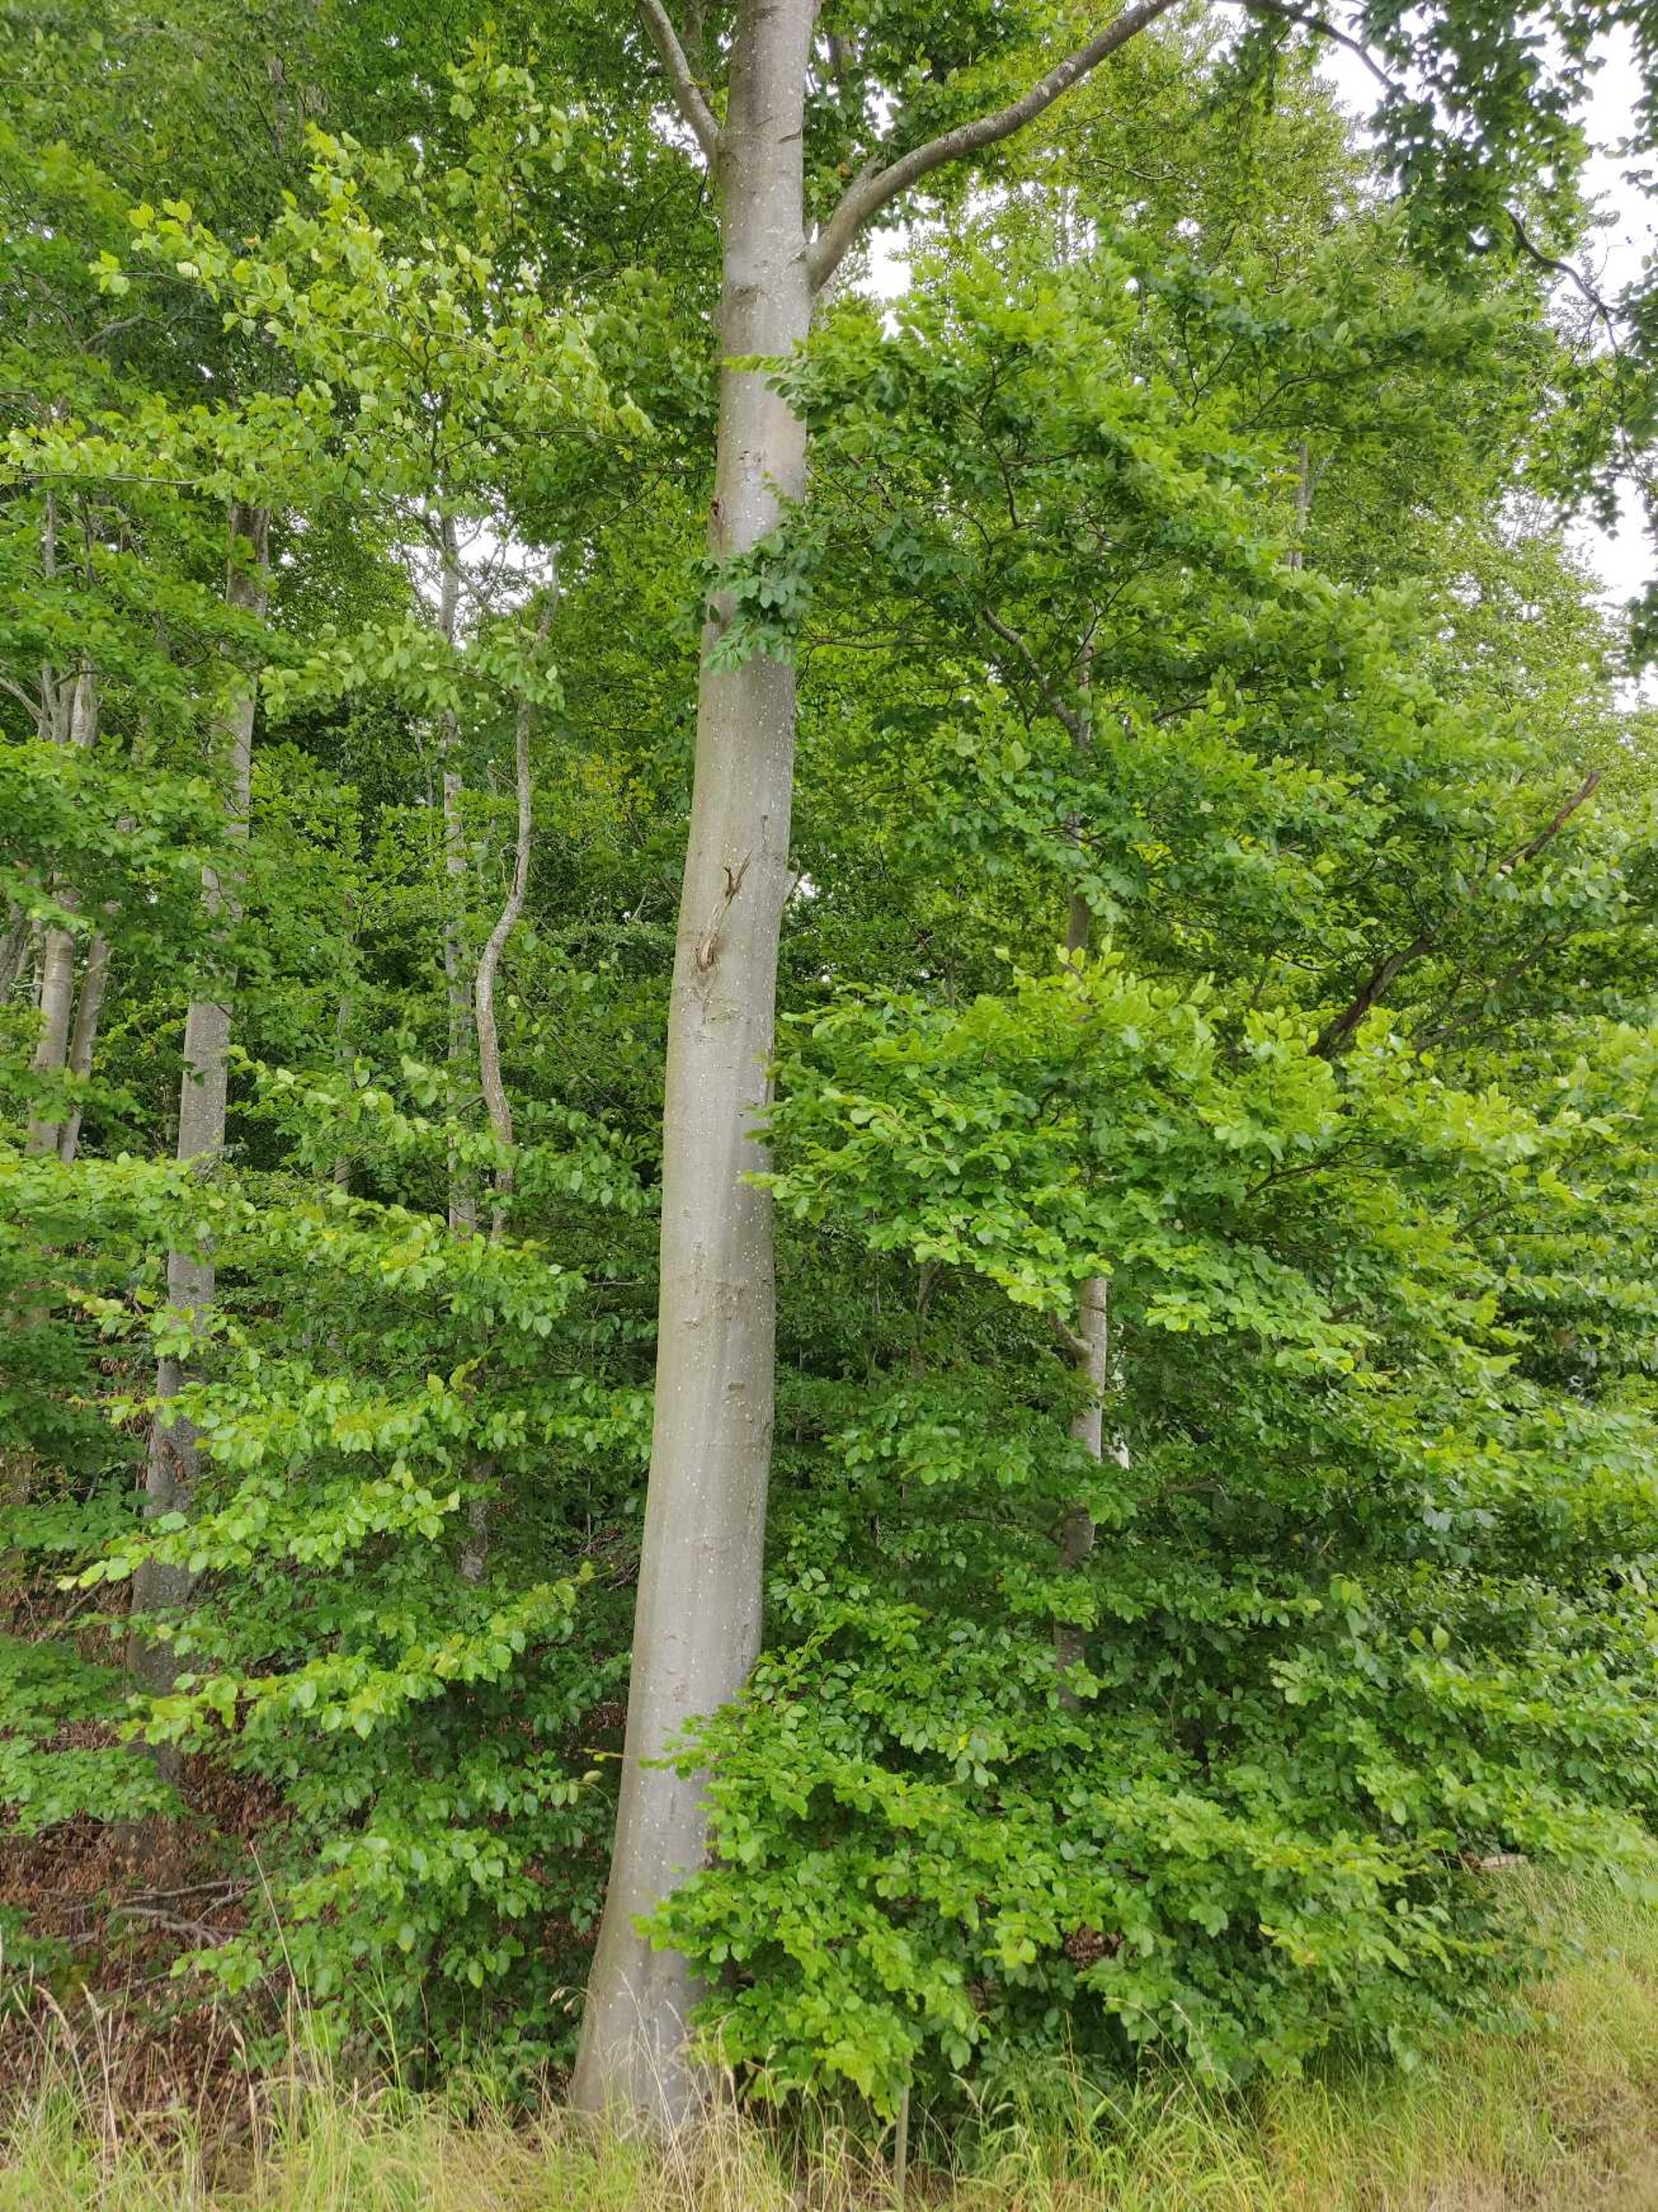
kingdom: Plantae
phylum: Tracheophyta
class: Magnoliopsida
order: Fagales
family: Fagaceae
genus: Fagus
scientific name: Fagus sylvatica
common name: Bøg
